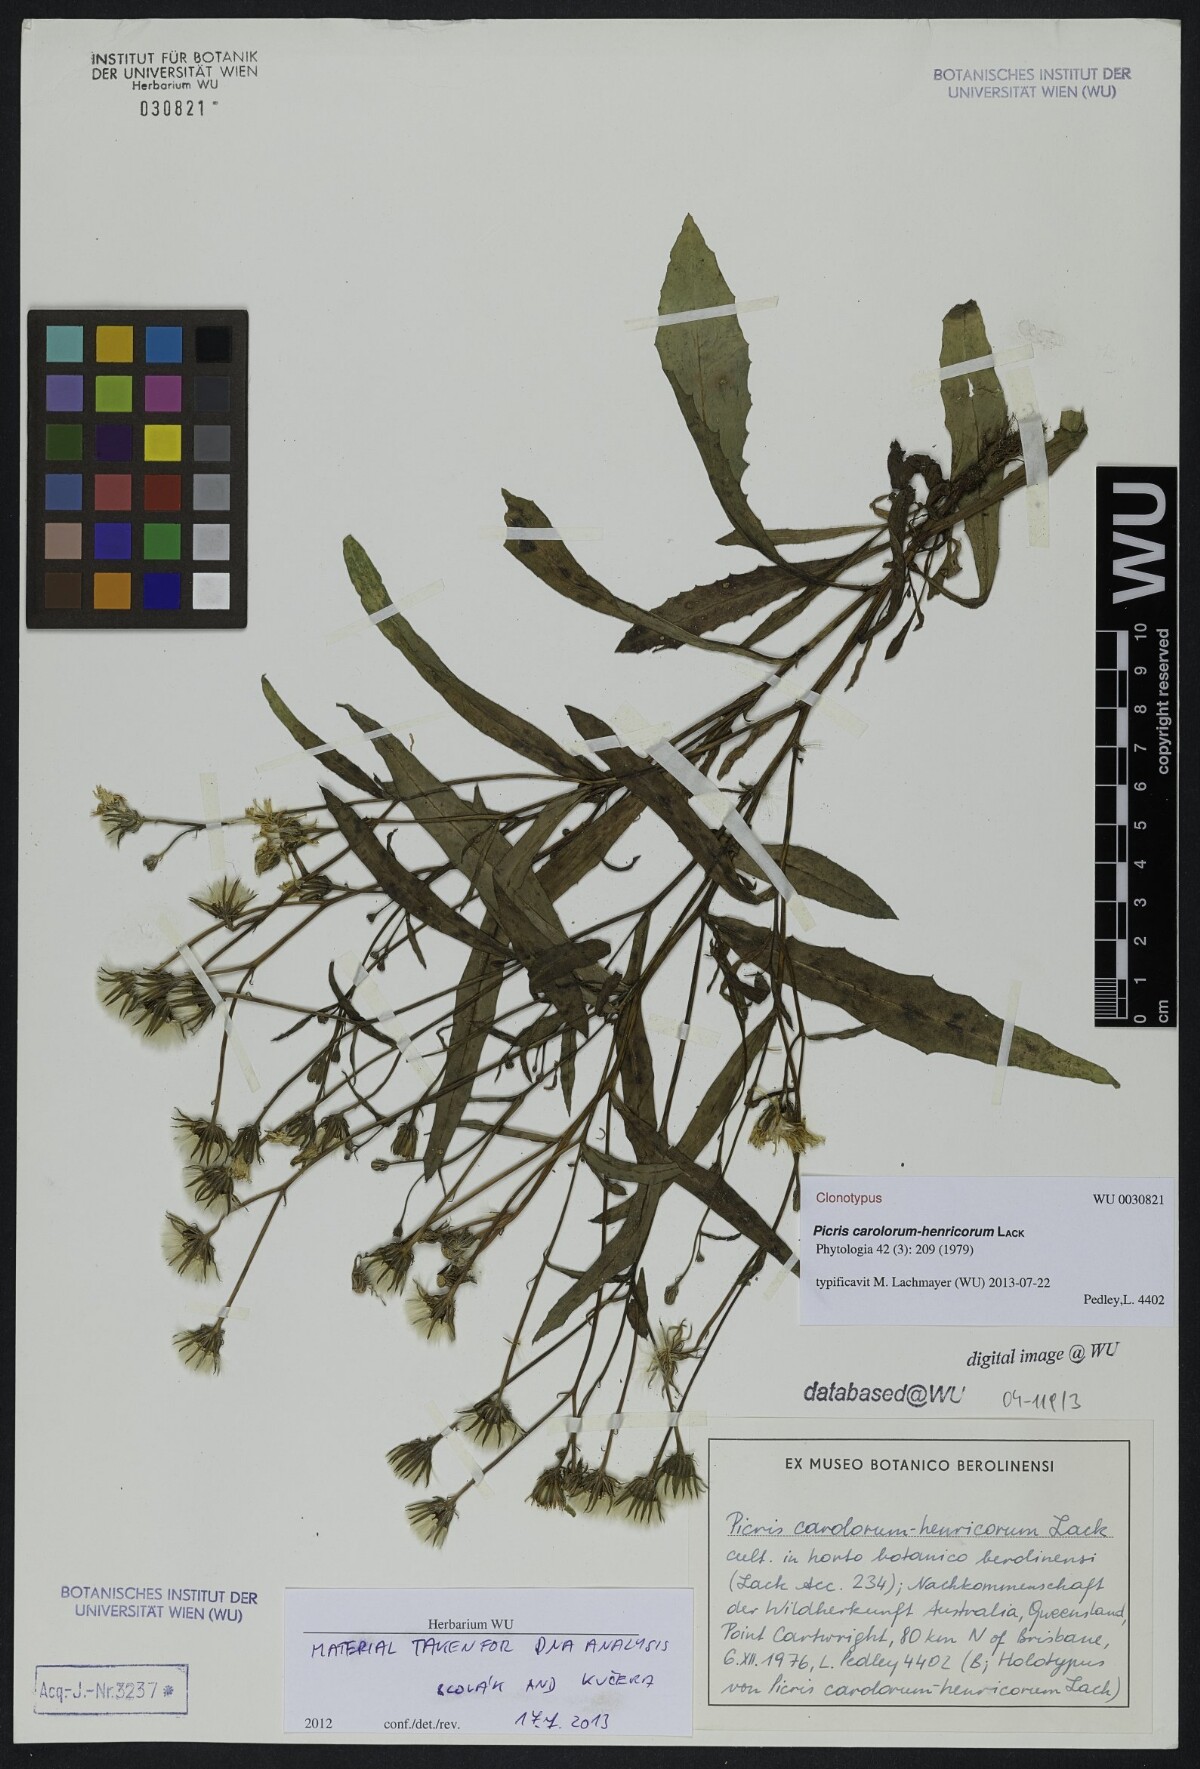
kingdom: Plantae
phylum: Tracheophyta
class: Magnoliopsida
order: Asterales
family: Asteraceae
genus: Picris
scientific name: Picris angustifolia
